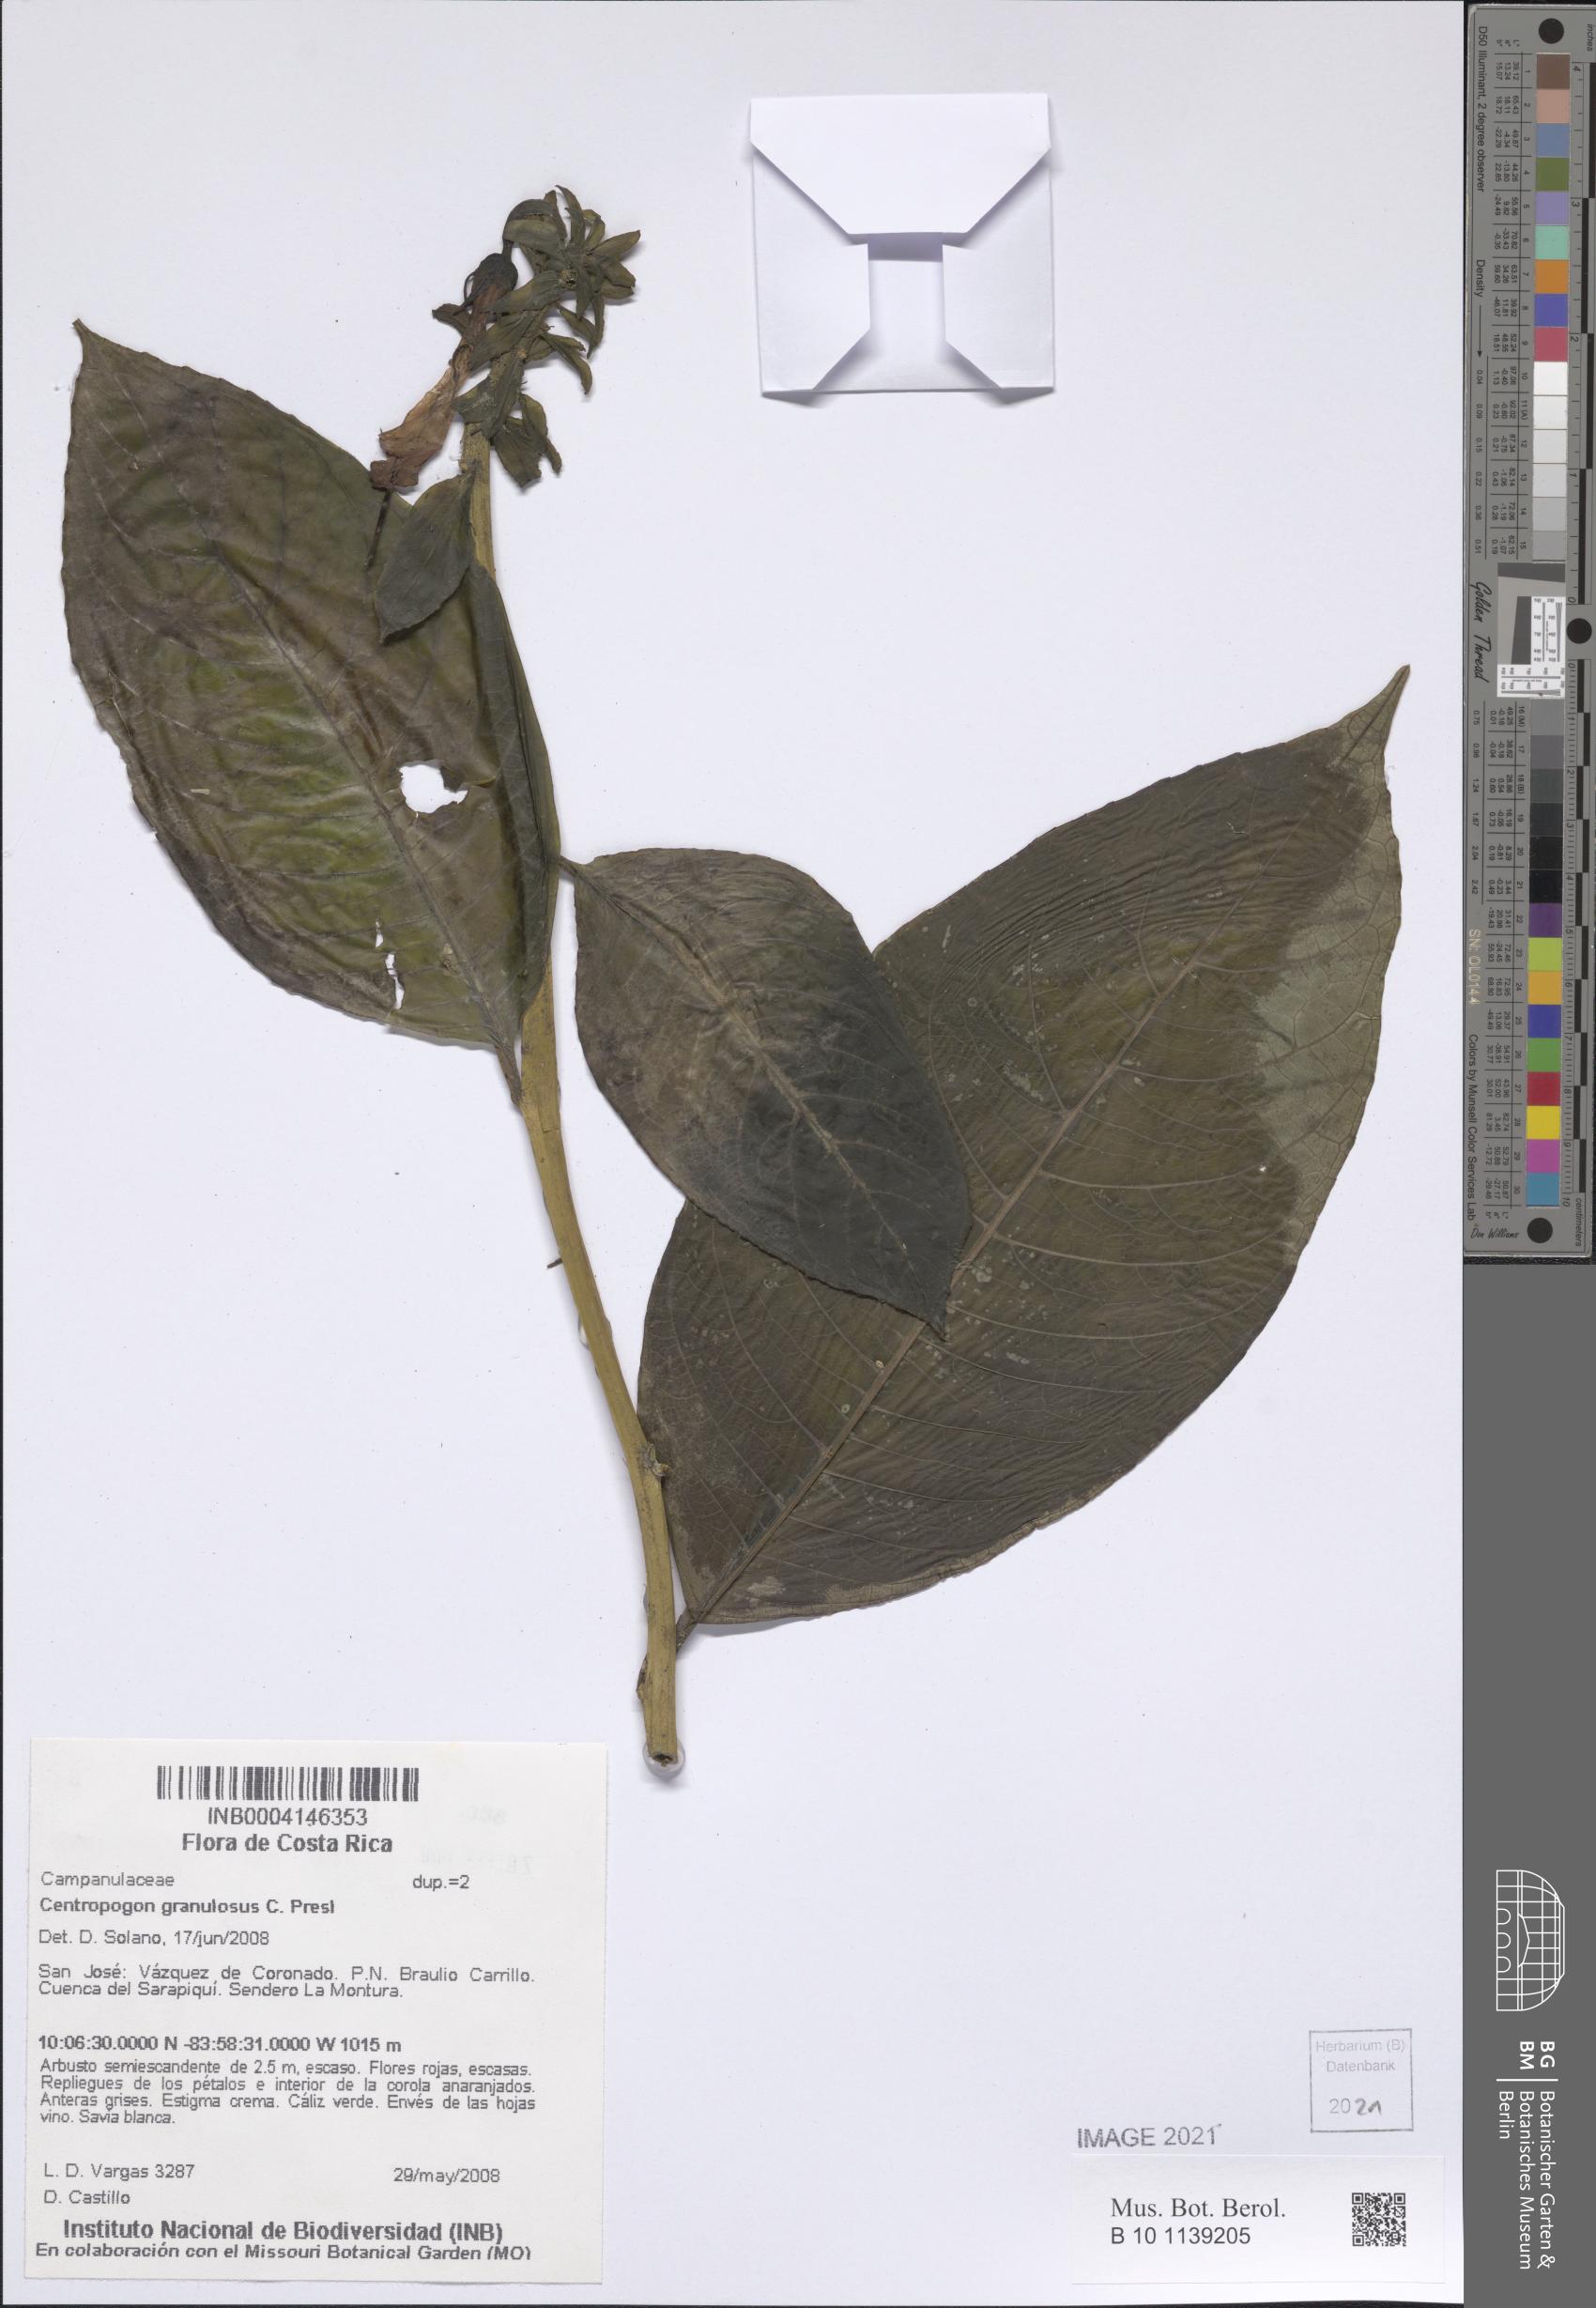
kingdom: Plantae
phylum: Tracheophyta
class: Magnoliopsida
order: Asterales
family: Campanulaceae
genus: Centropogon
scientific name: Centropogon granulosus
